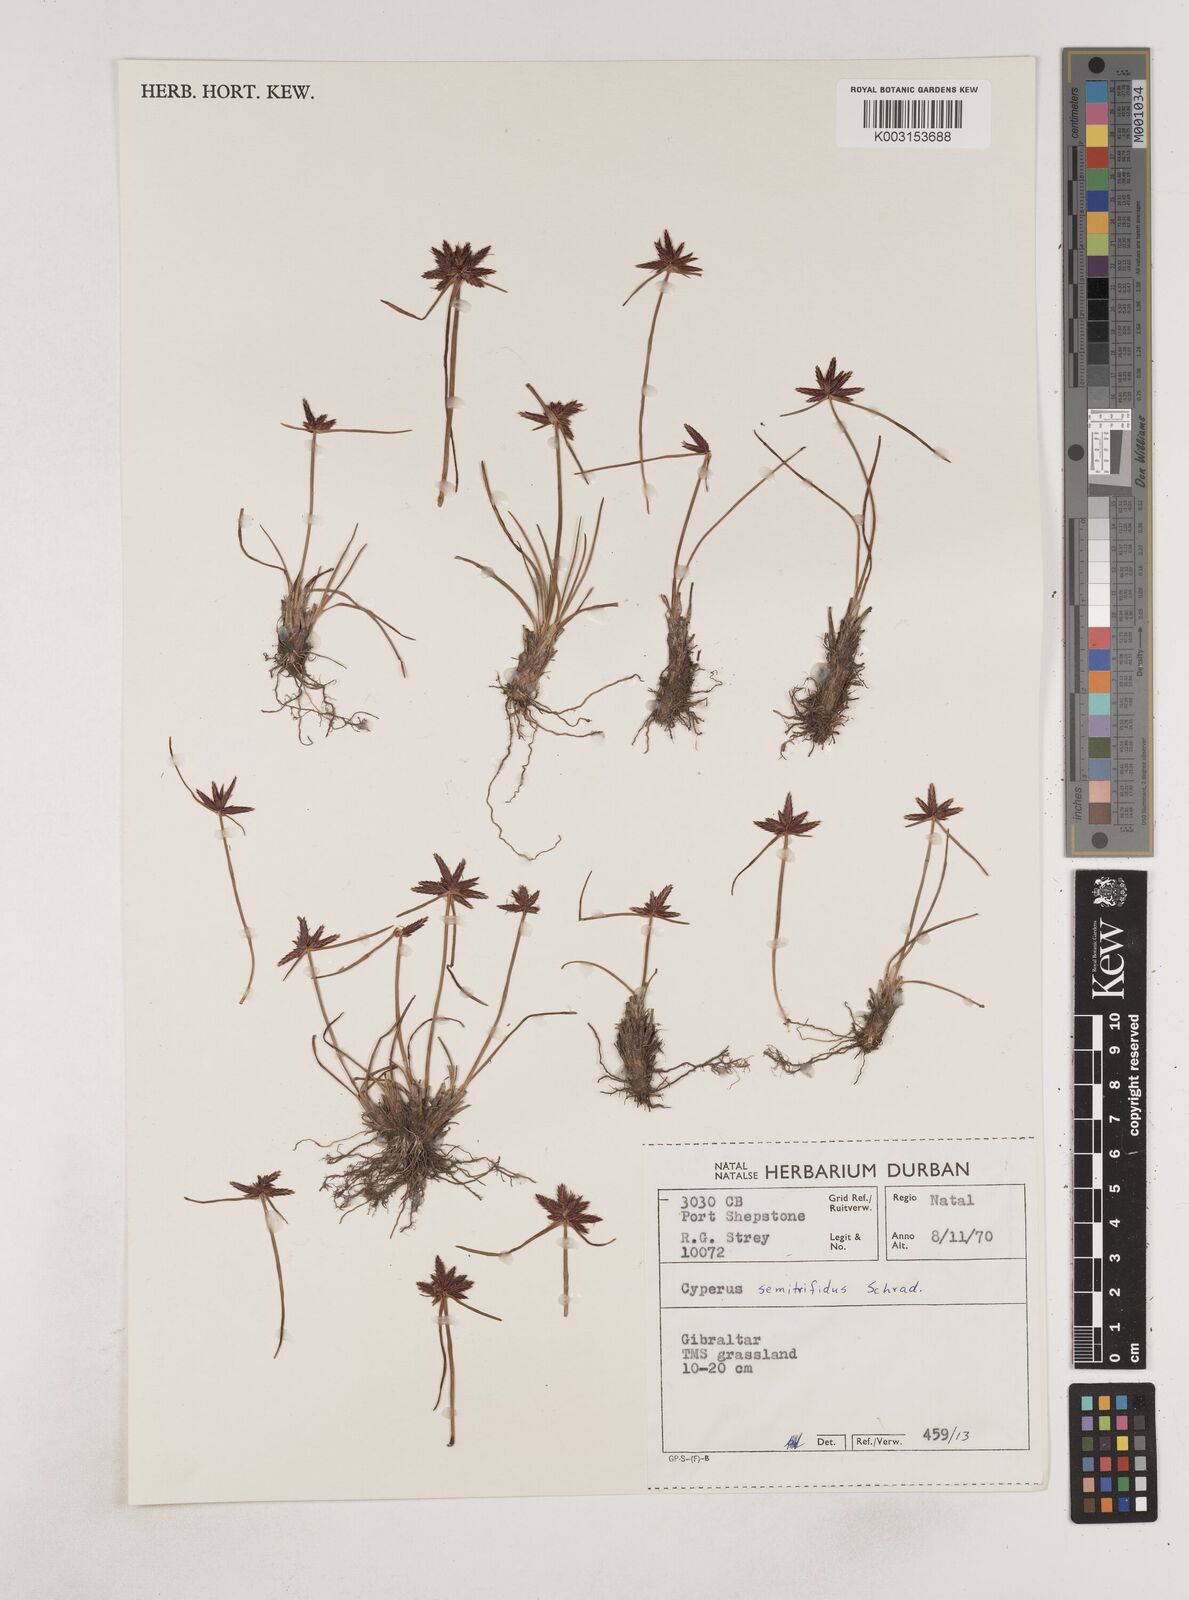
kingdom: Plantae
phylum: Tracheophyta
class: Liliopsida
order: Poales
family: Cyperaceae
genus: Cyperus
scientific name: Cyperus semitrifidus
